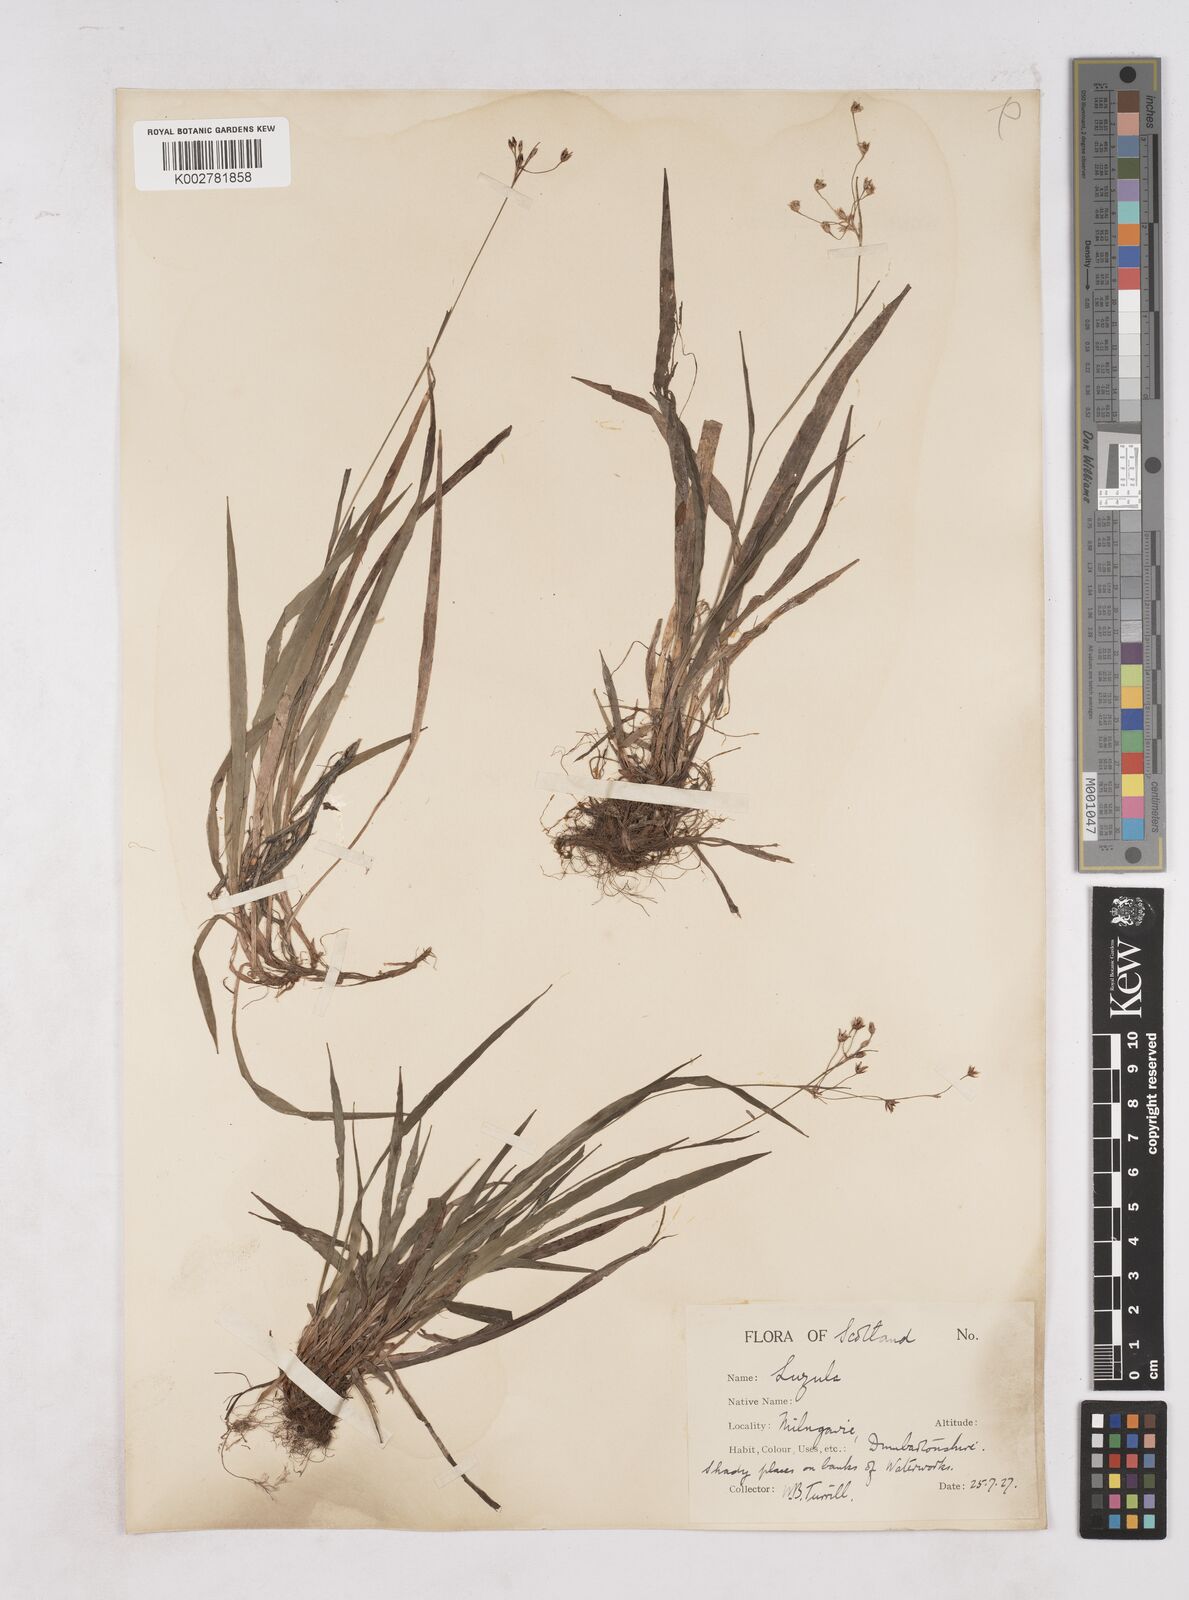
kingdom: Plantae
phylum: Tracheophyta
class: Liliopsida
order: Poales
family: Juncaceae
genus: Luzula
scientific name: Luzula sylvatica
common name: Great wood-rush
